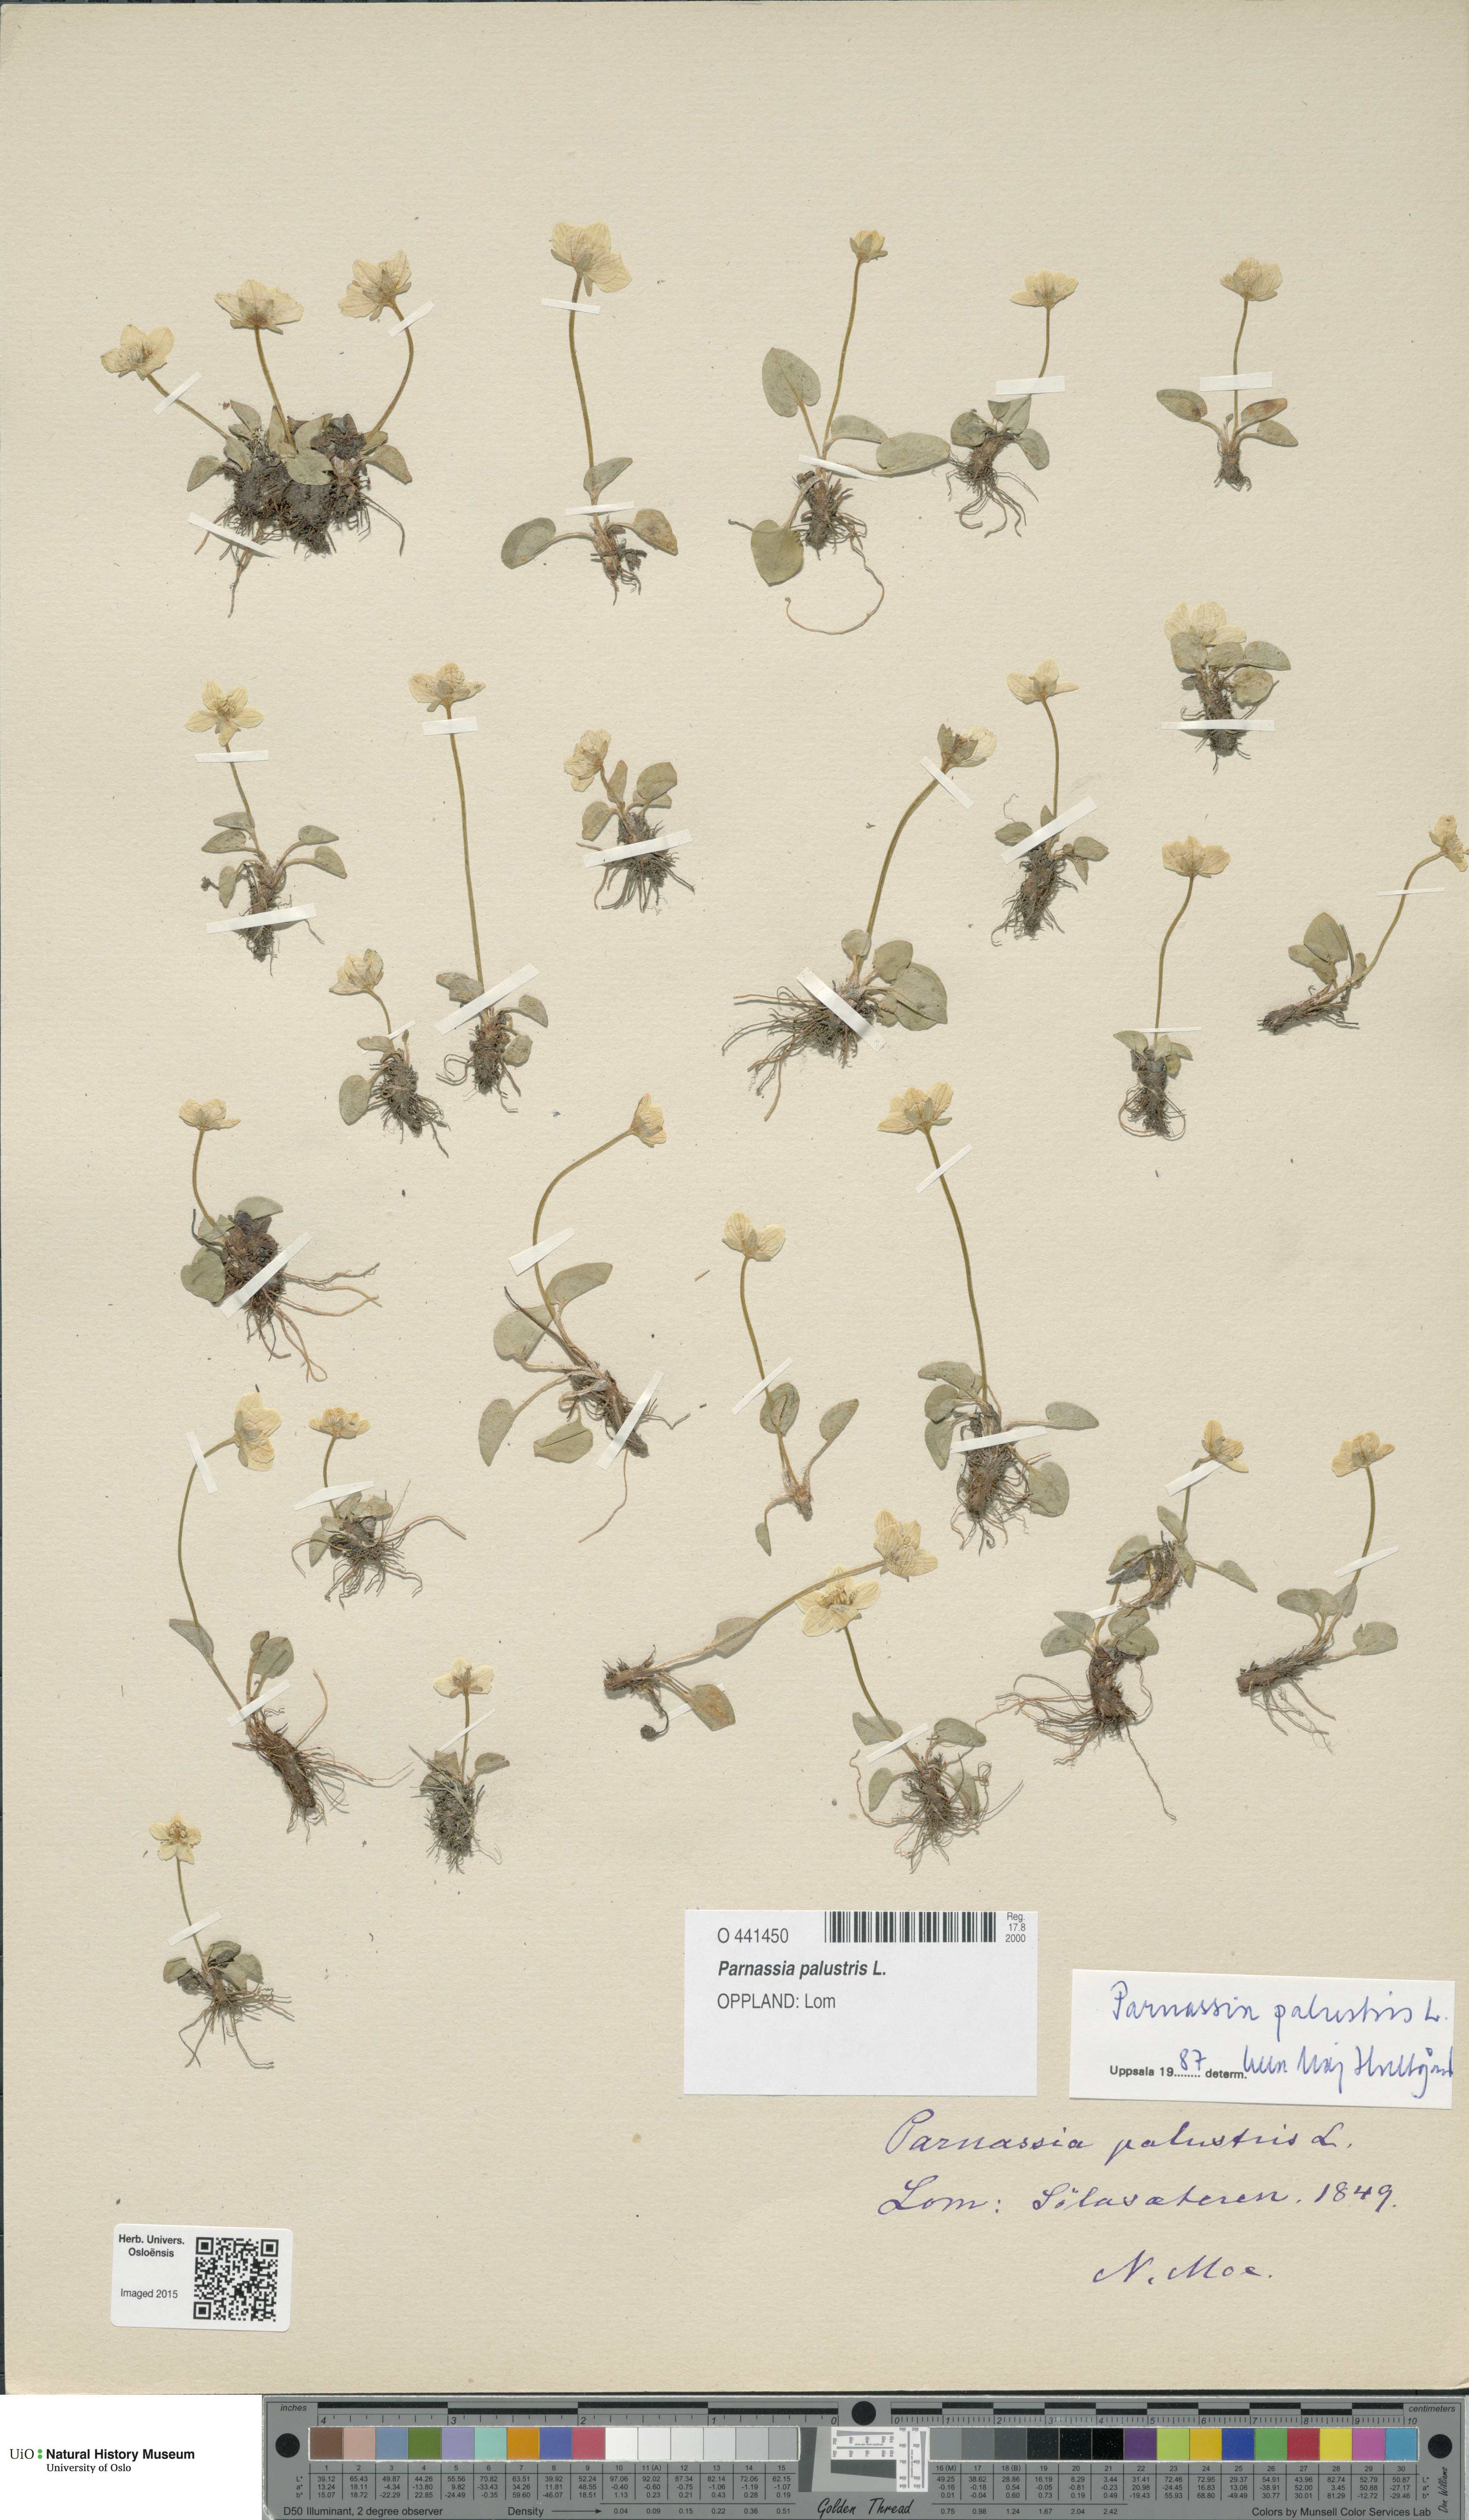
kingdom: Plantae
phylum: Tracheophyta
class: Magnoliopsida
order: Celastrales
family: Parnassiaceae
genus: Parnassia
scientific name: Parnassia palustris
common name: Grass-of-parnassus
